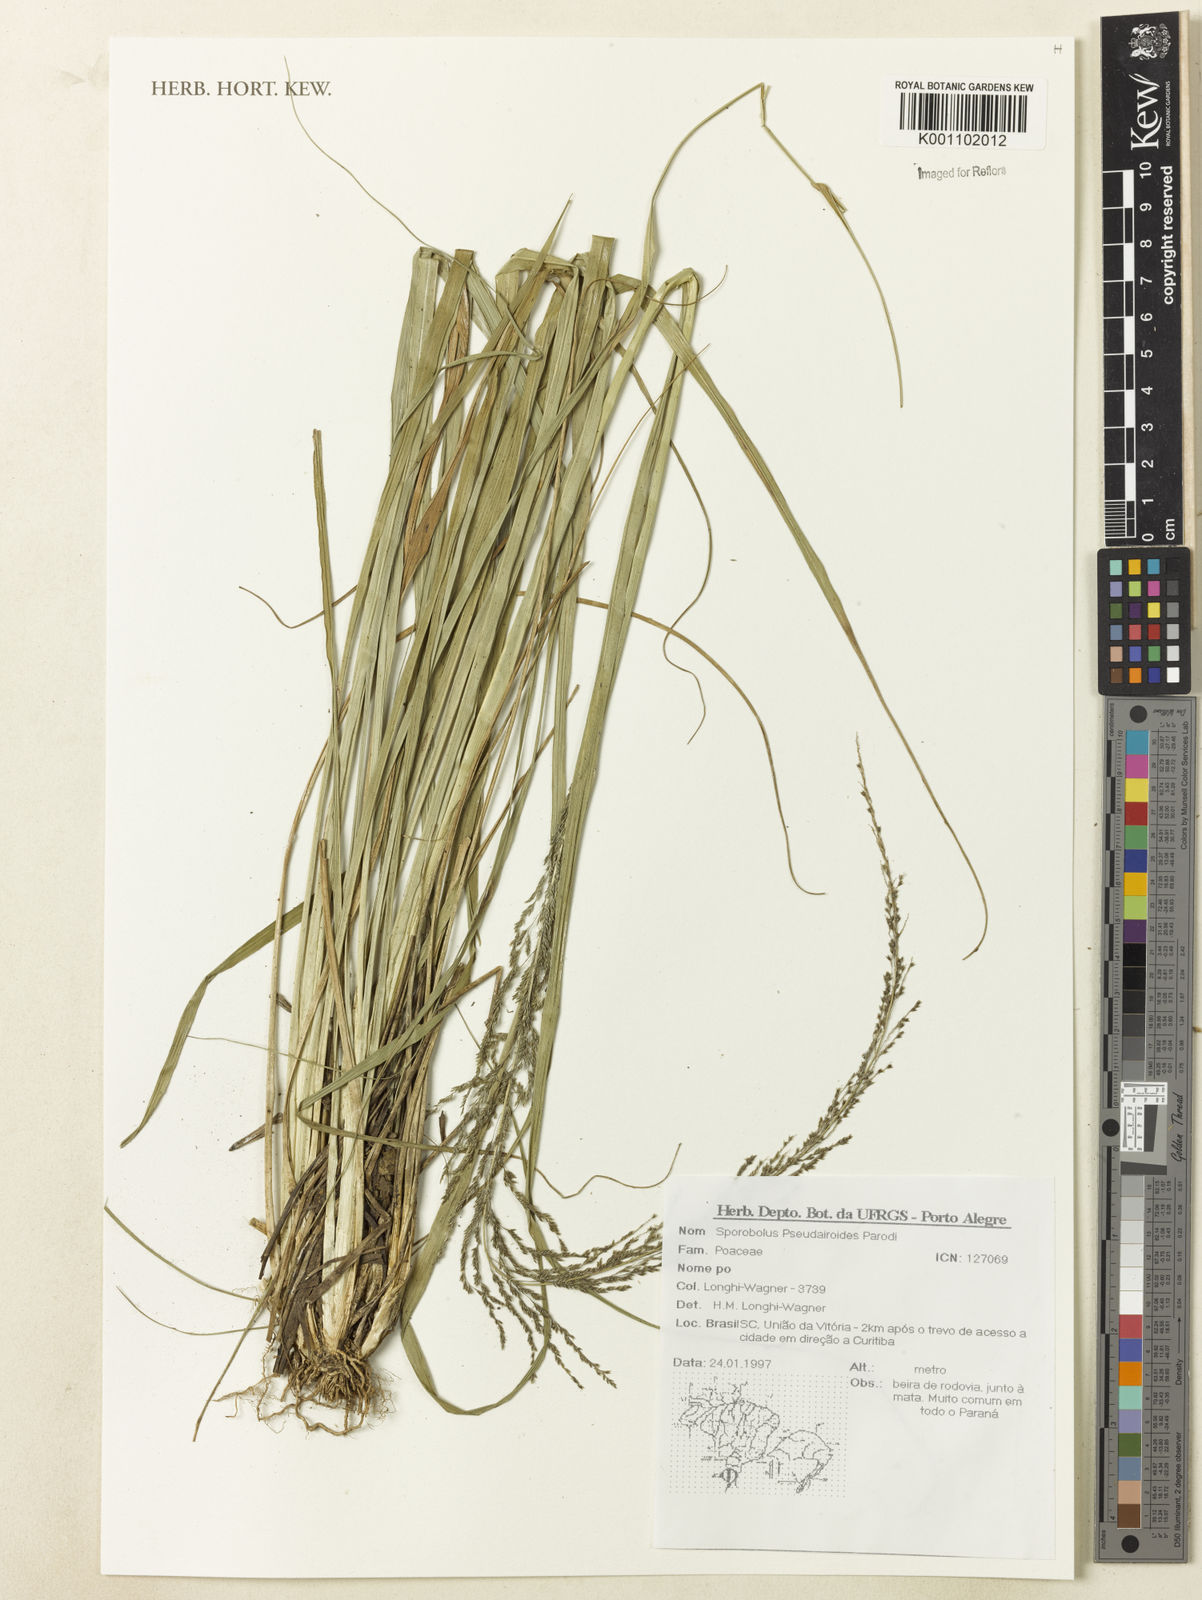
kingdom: Plantae
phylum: Tracheophyta
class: Liliopsida
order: Poales
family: Poaceae
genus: Sporobolus
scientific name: Sporobolus pseudairoides
